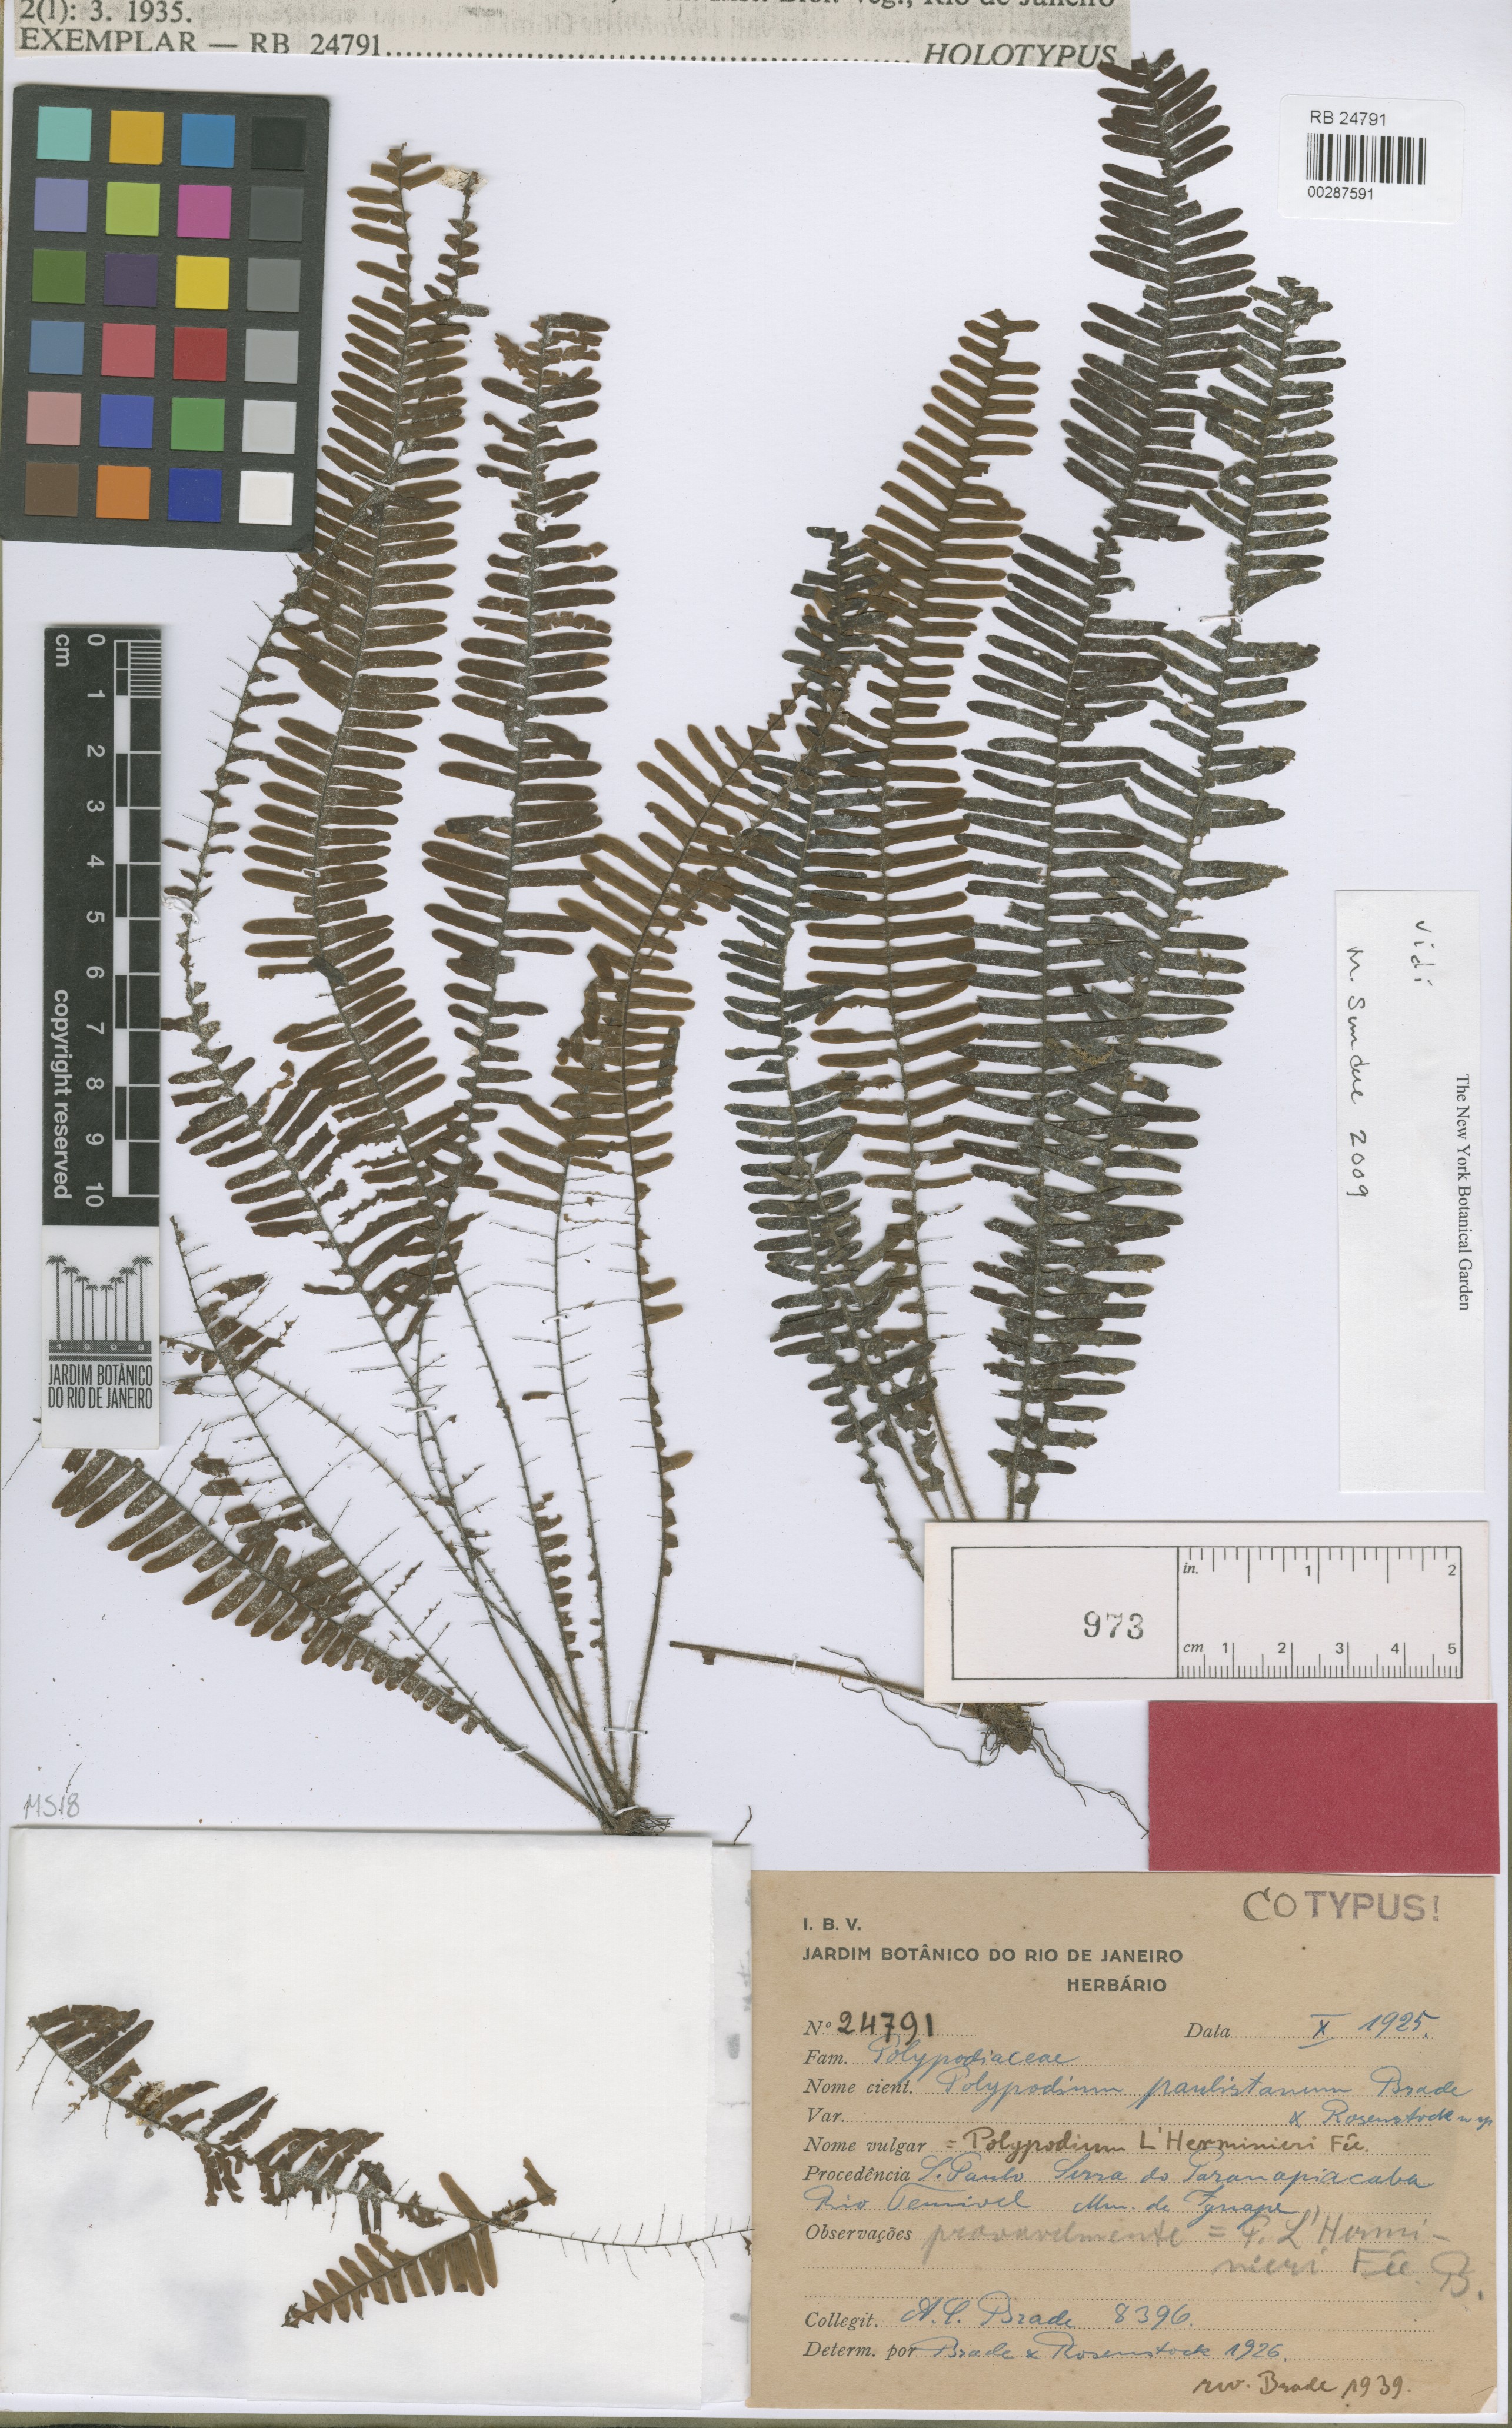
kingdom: Plantae
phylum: Tracheophyta
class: Polypodiopsida
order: Polypodiales
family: Polypodiaceae
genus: Terpsichore
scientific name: Terpsichore paulistana
